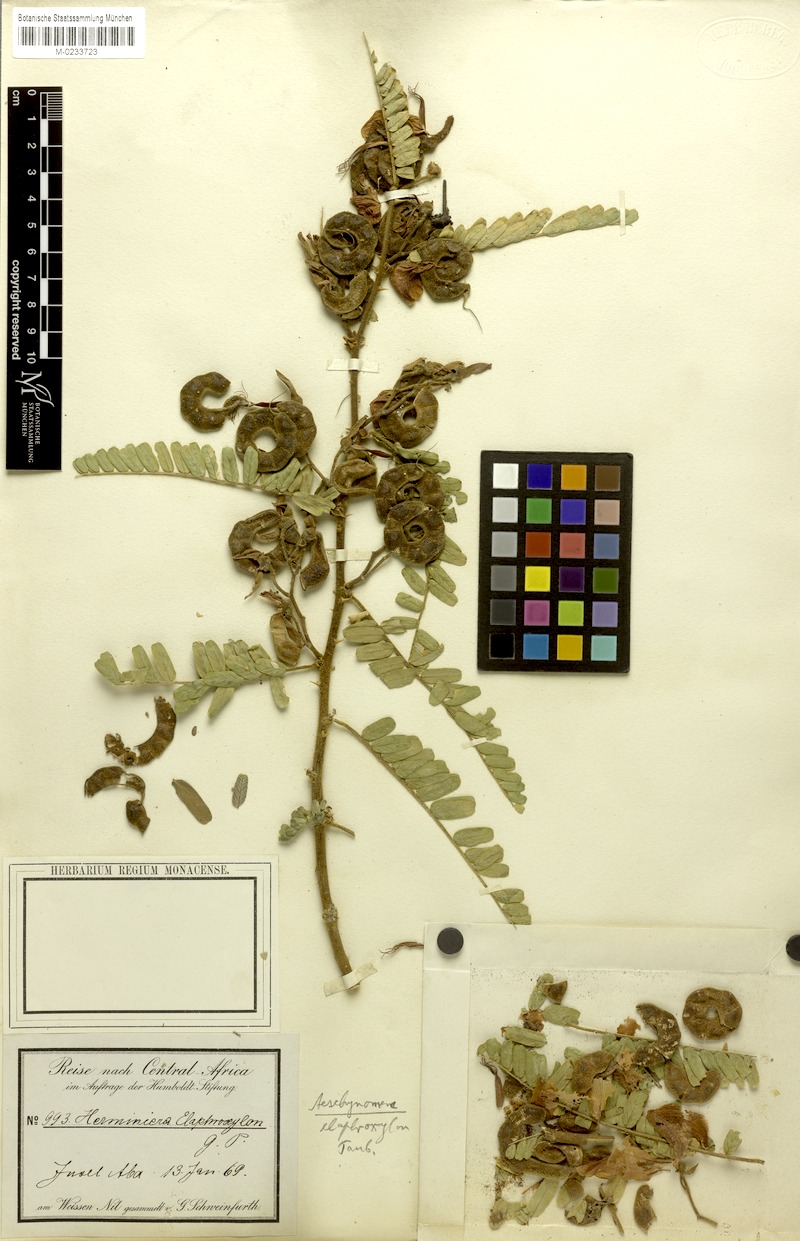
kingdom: Plantae
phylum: Tracheophyta
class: Magnoliopsida
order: Fabales
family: Fabaceae
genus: Aeschynomene
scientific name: Aeschynomene elaphroxylon
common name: Ambatch
